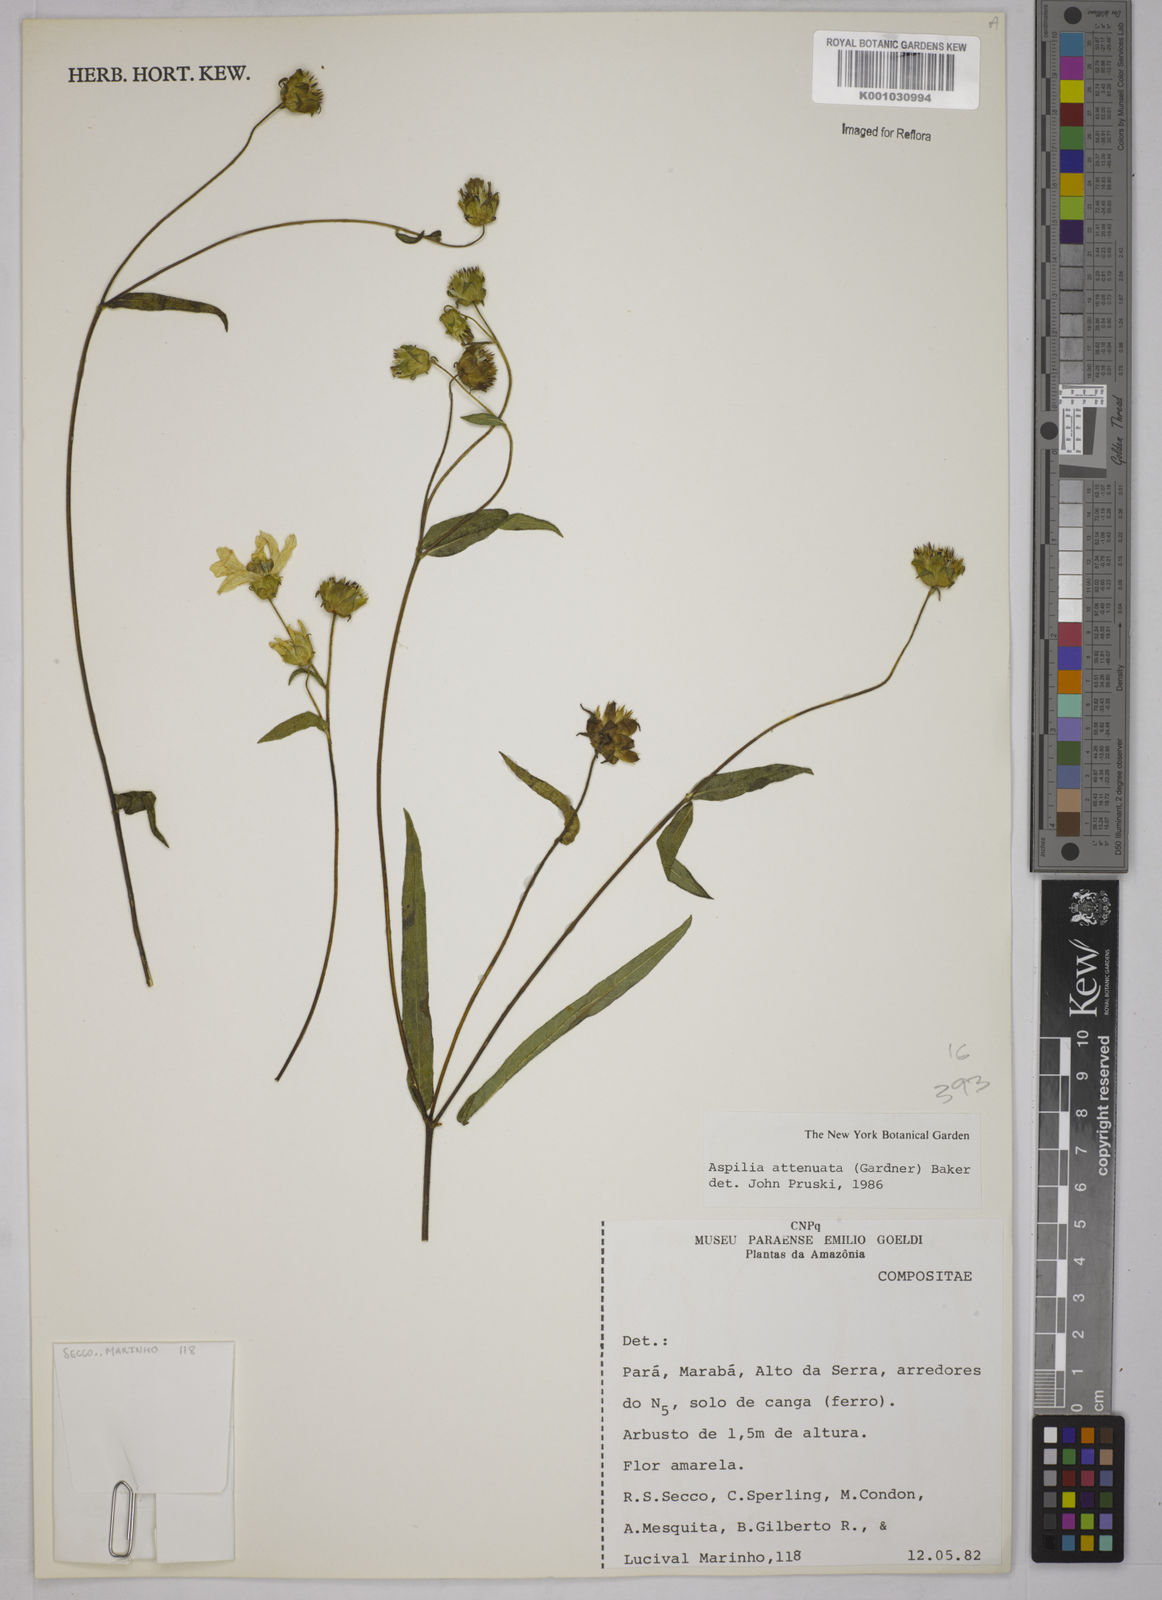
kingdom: Plantae
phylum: Tracheophyta
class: Magnoliopsida
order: Asterales
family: Asteraceae
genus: Wedelia
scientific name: Wedelia attenuata
